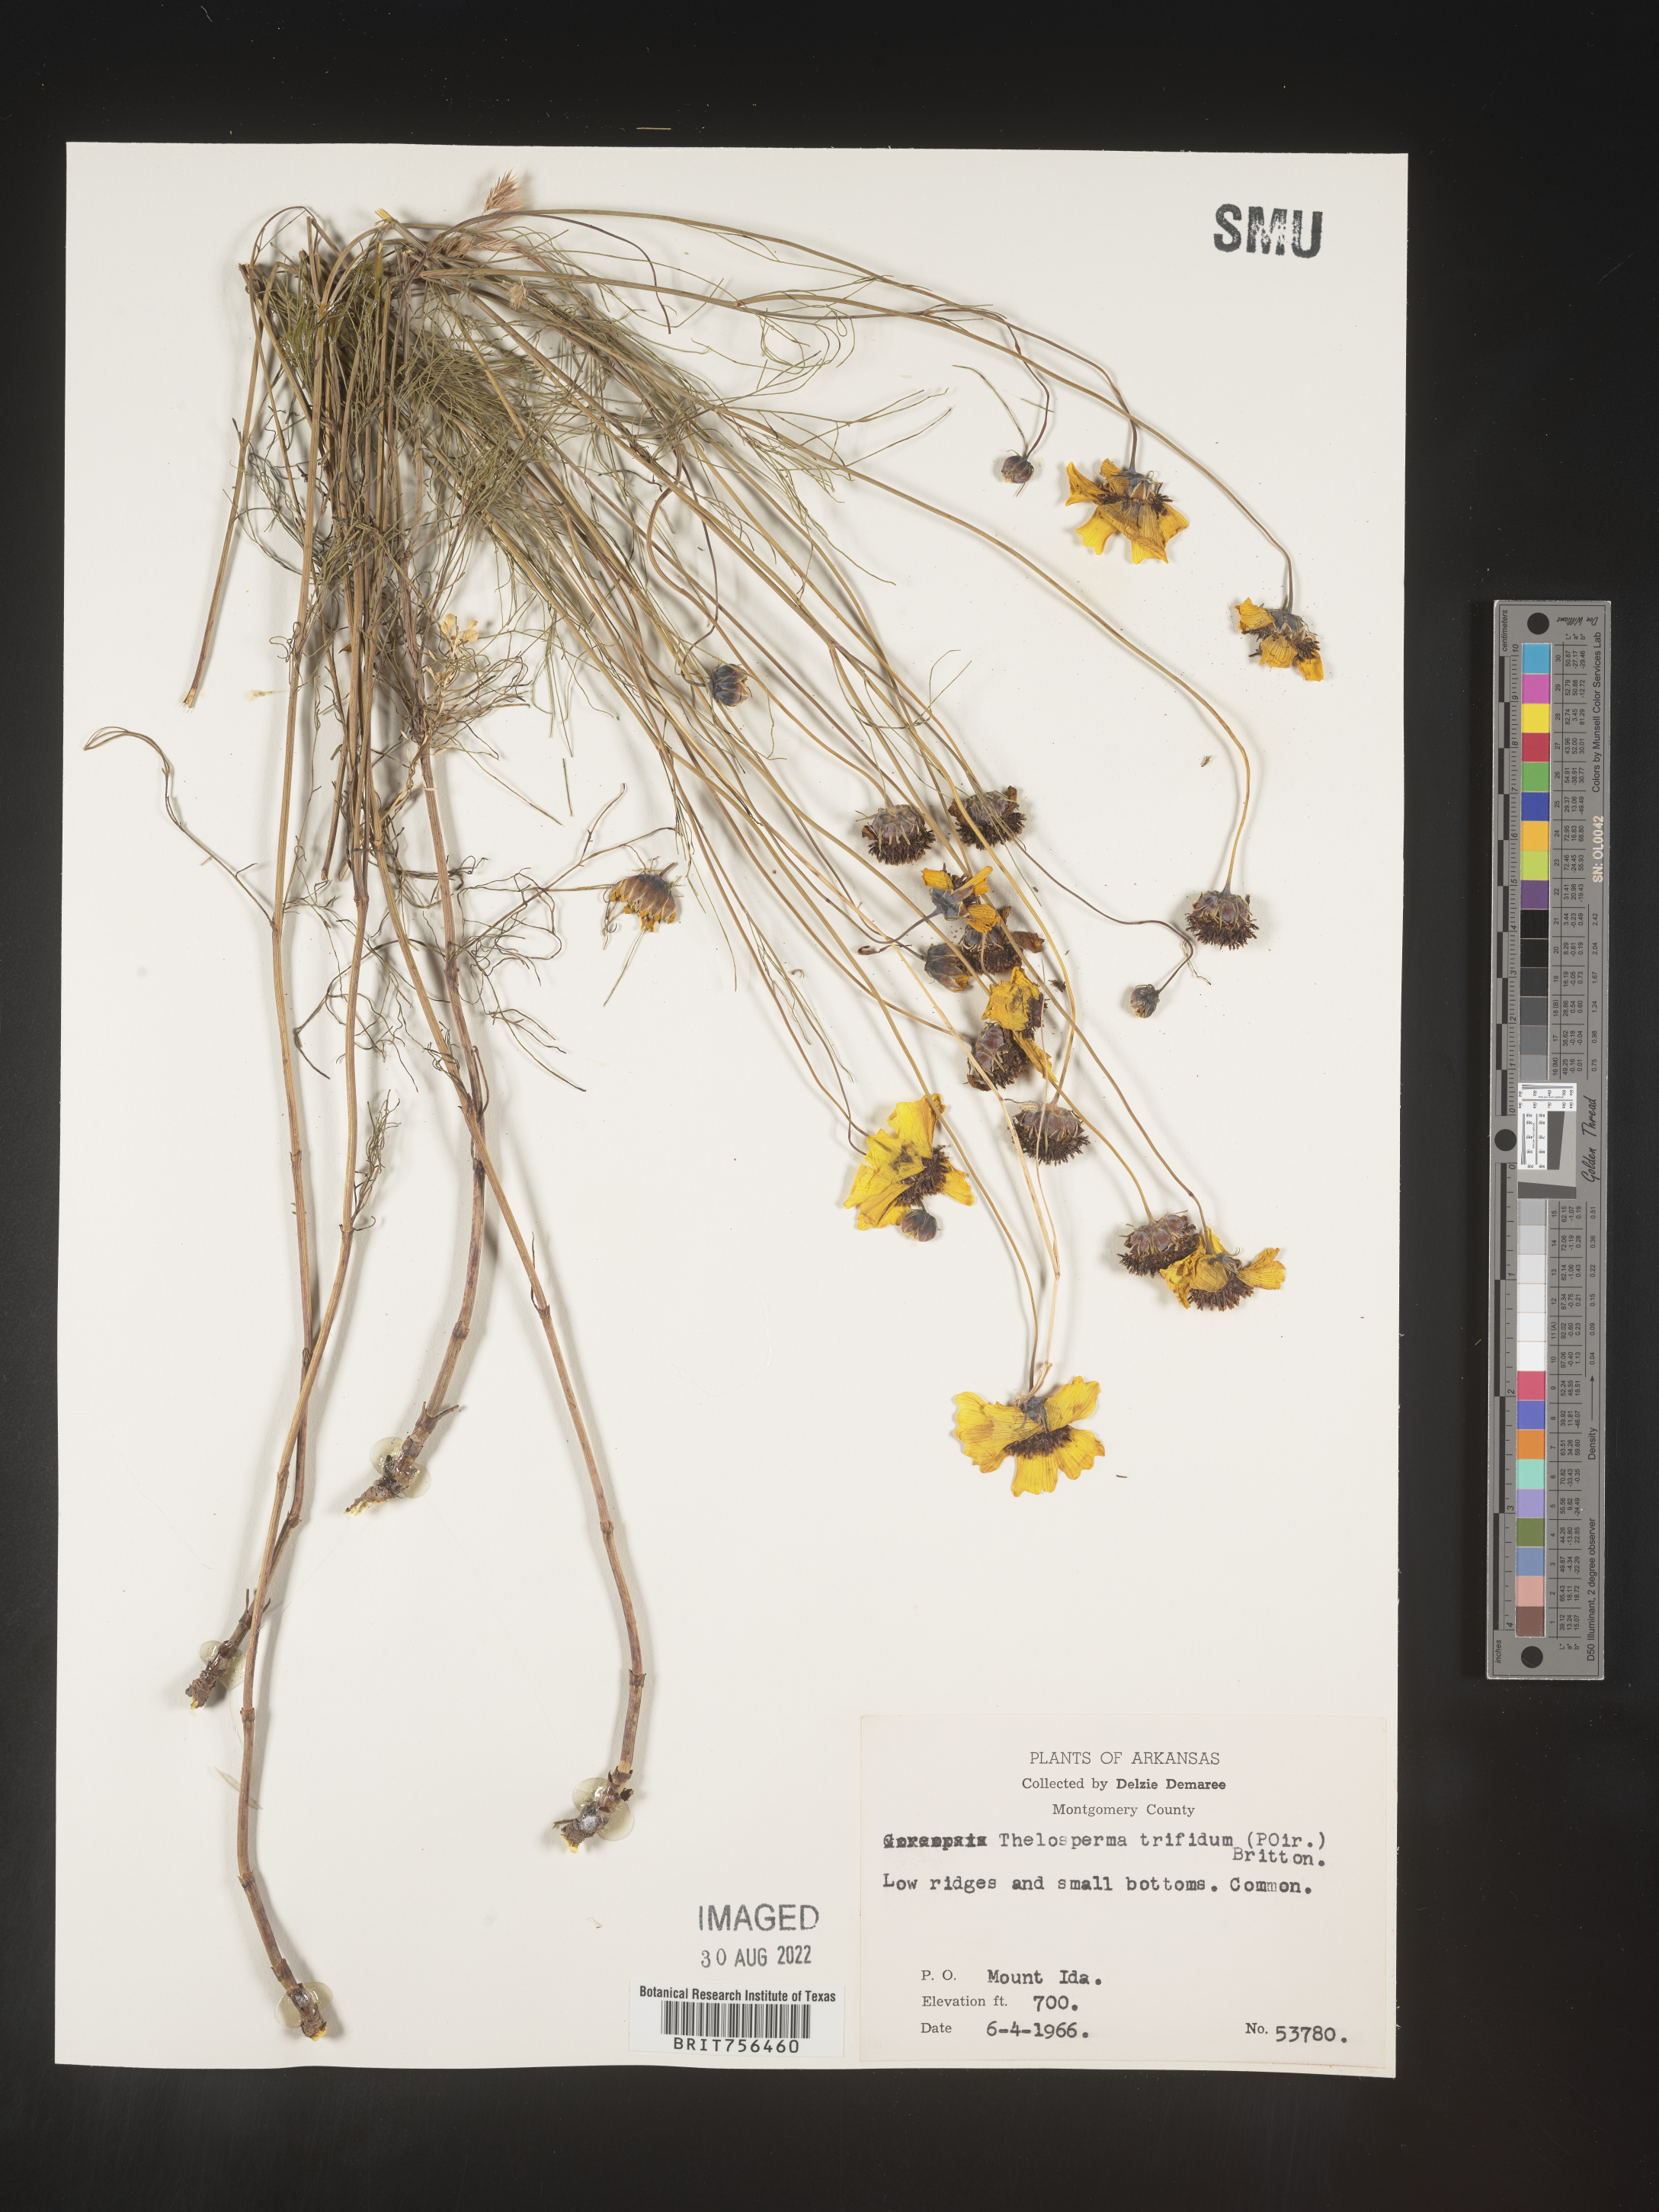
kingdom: Plantae
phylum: Tracheophyta
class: Magnoliopsida
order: Asterales
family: Asteraceae
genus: Thelesperma
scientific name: Thelesperma filifolium
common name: Stiff greenthread
